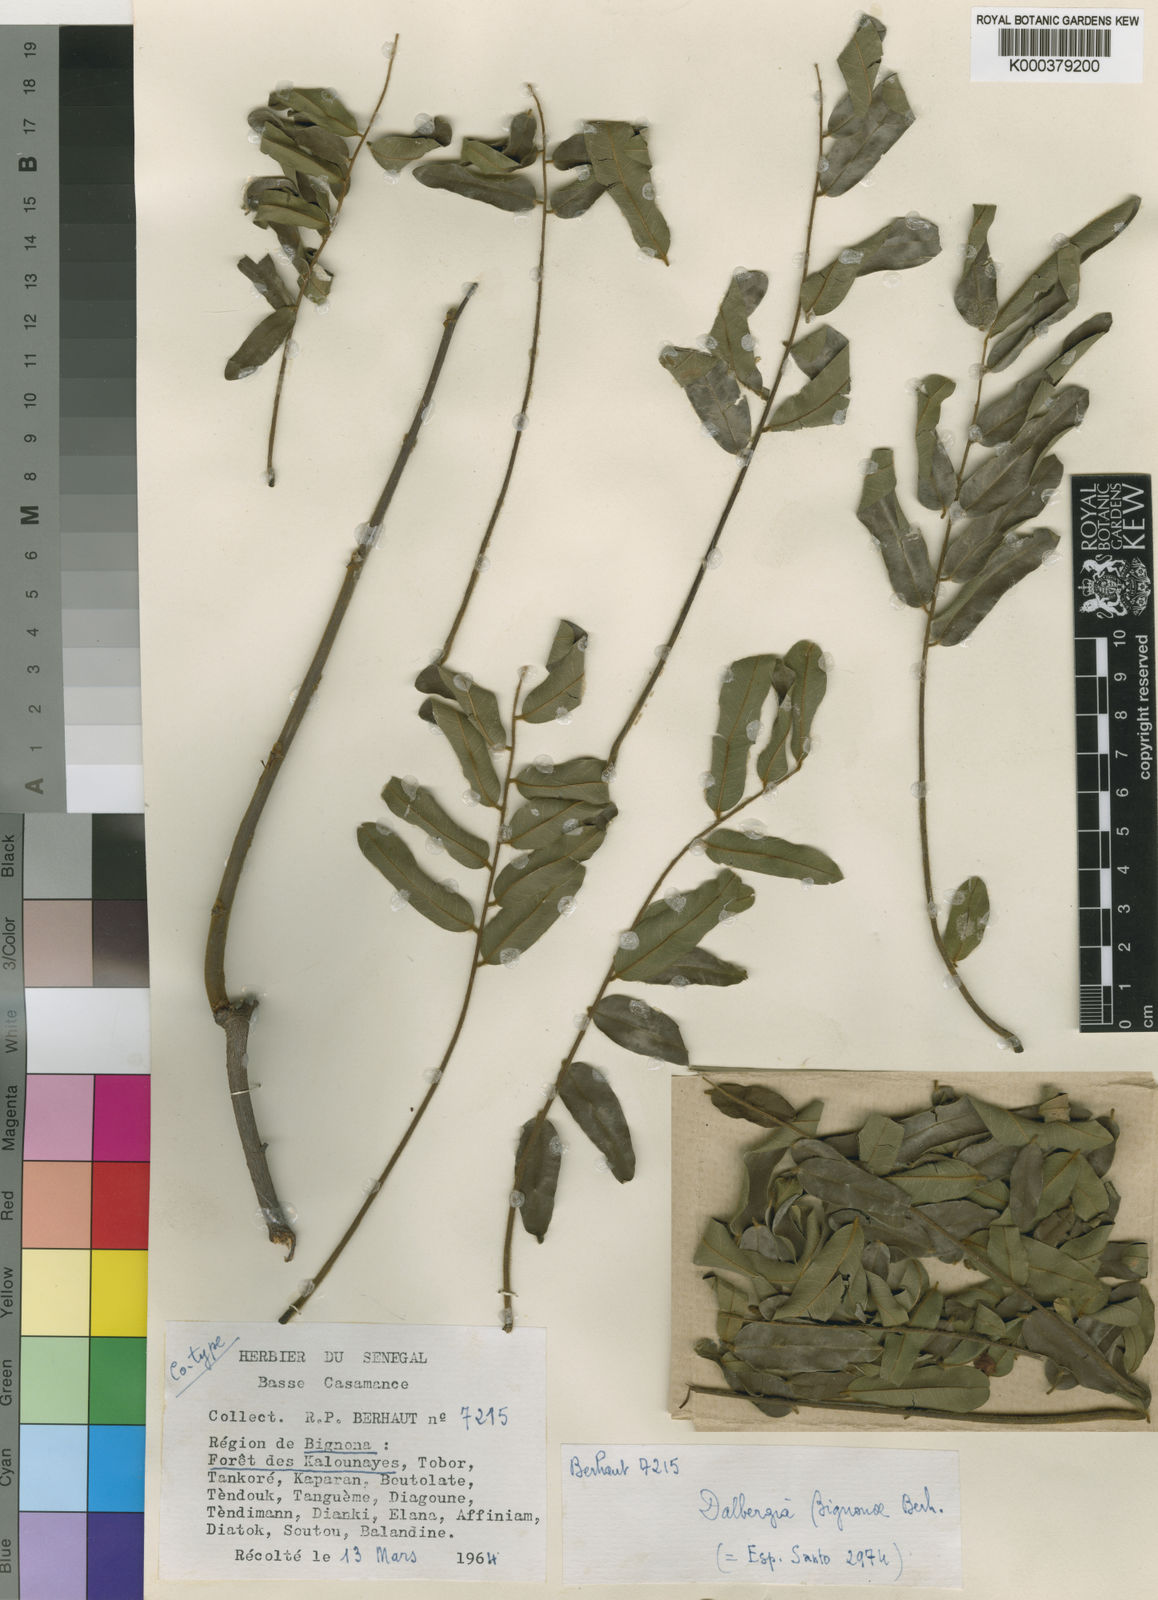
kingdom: Plantae
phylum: Tracheophyta
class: Magnoliopsida
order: Fabales
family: Fabaceae
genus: Dalbergia
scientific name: Dalbergia mayumbensis
